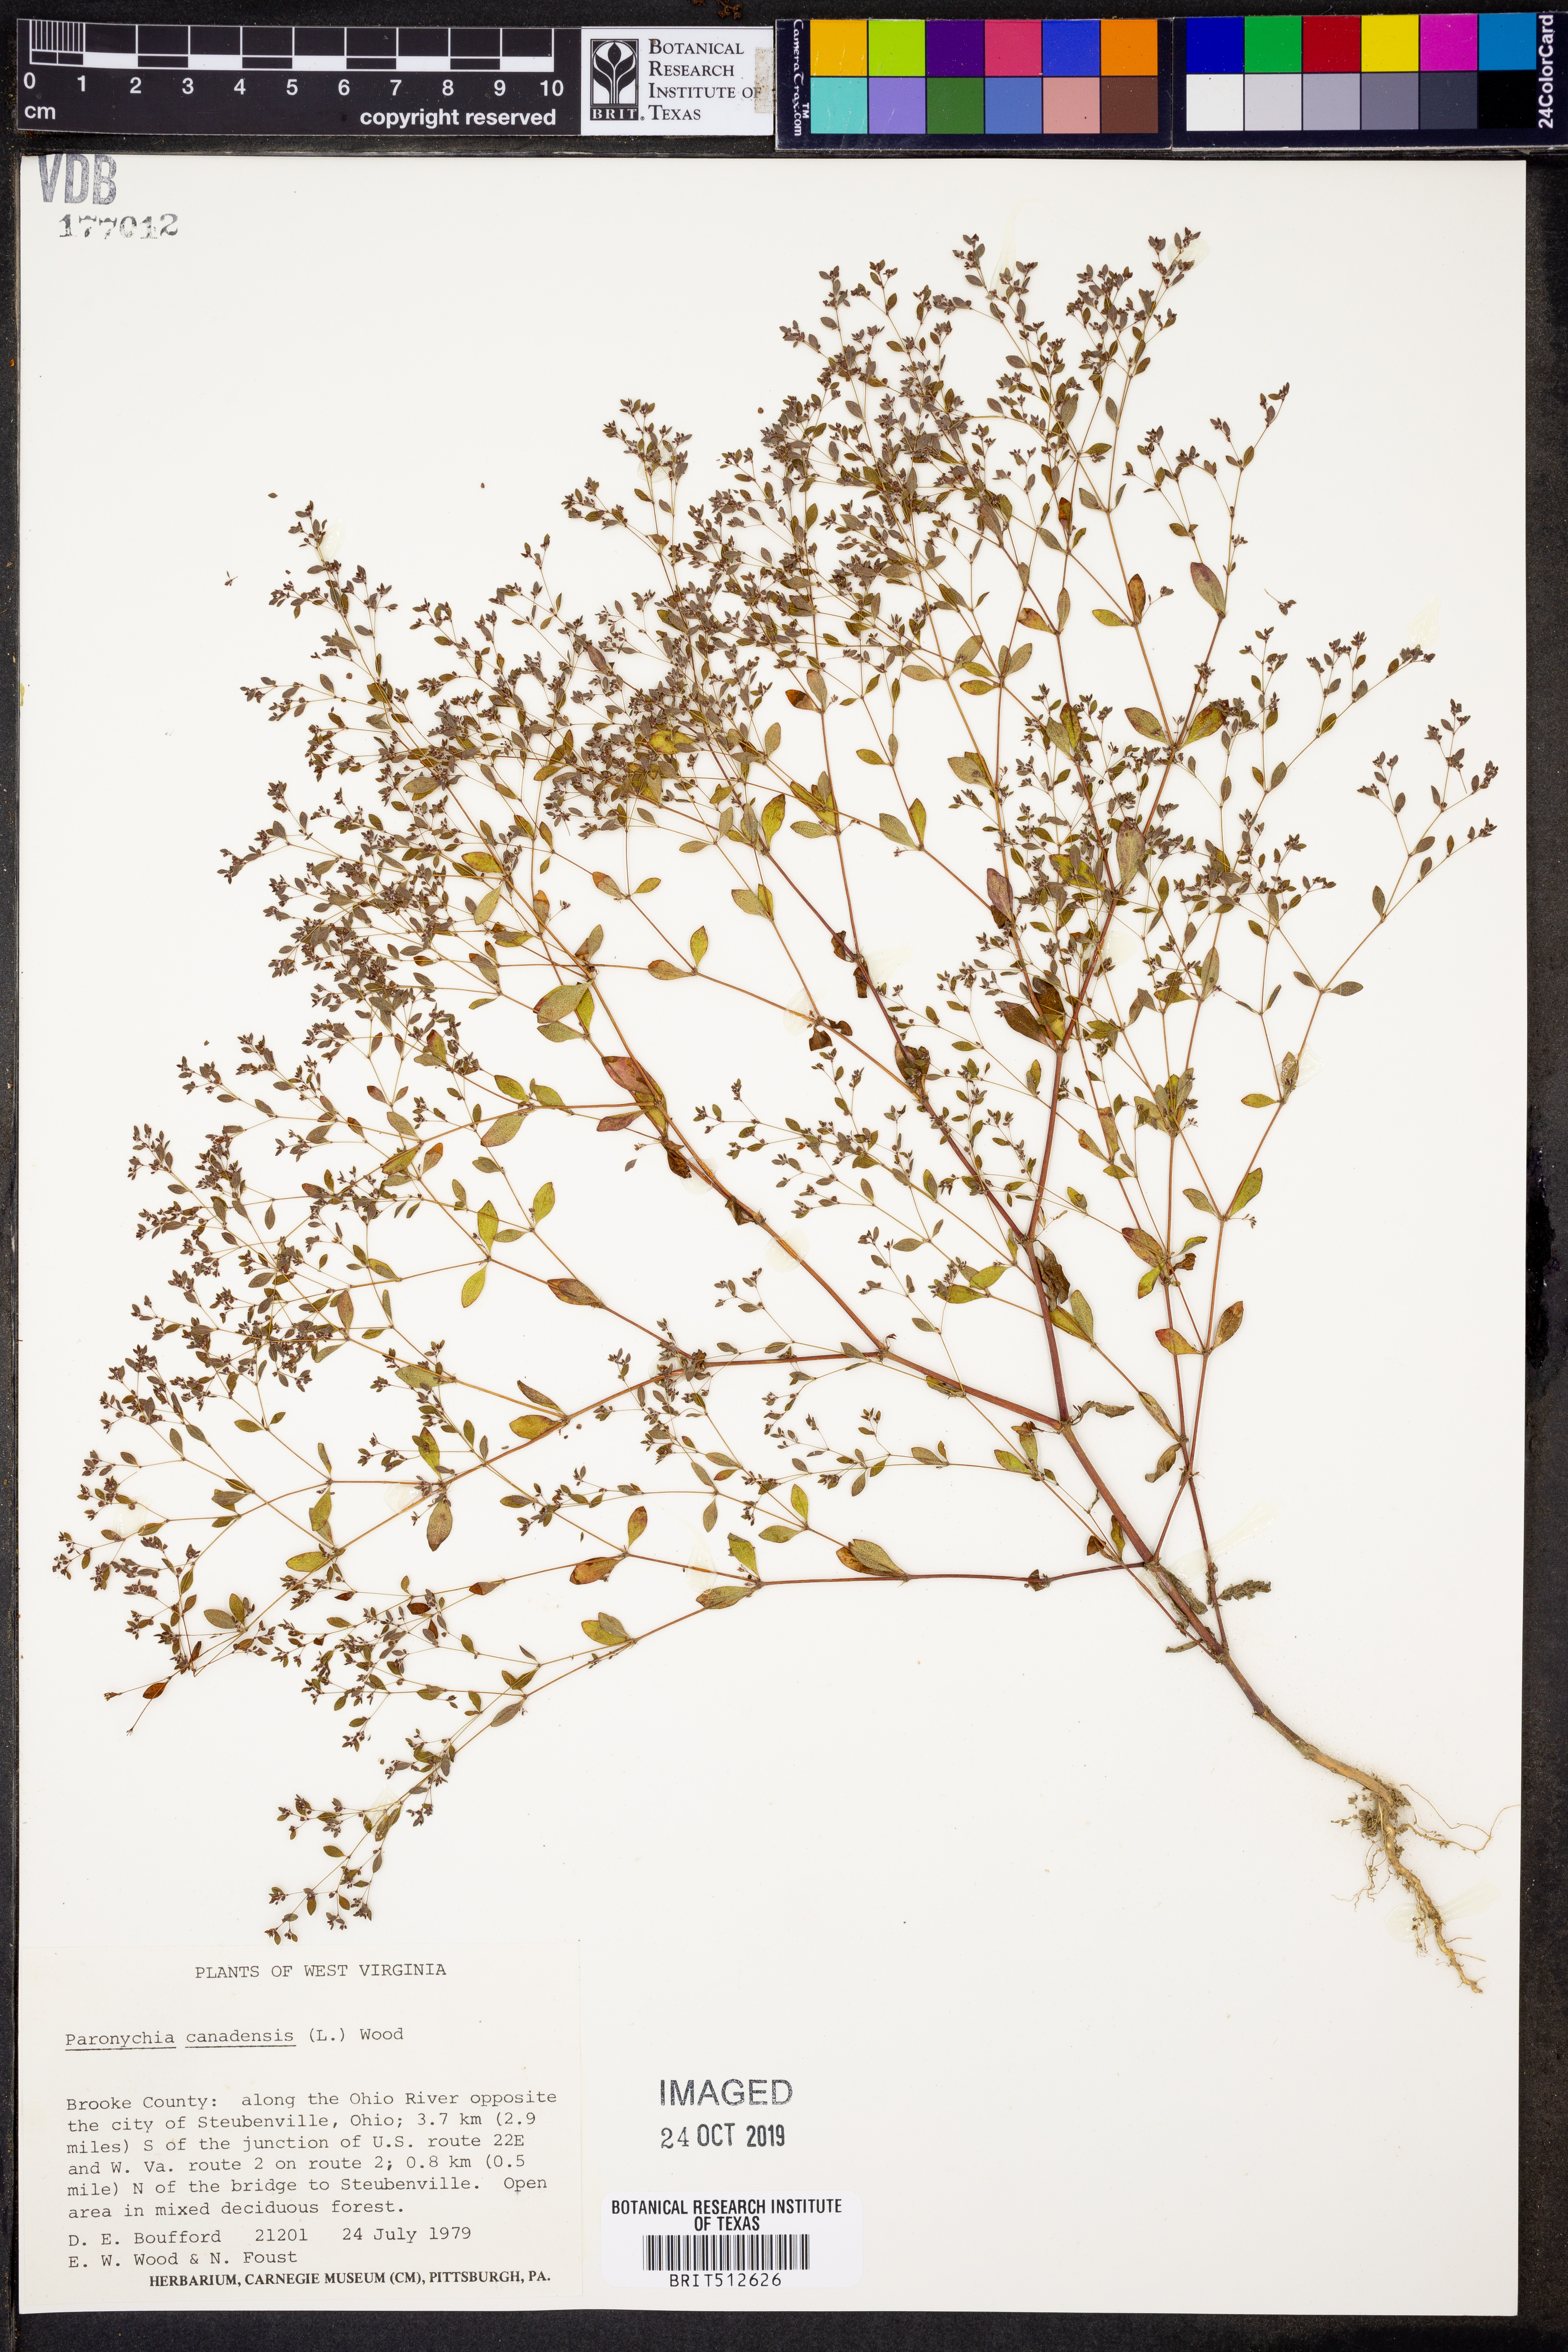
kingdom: Plantae
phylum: Tracheophyta
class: Magnoliopsida
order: Caryophyllales
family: Caryophyllaceae
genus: Paronychia
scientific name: Paronychia canadensis
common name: Canada forked nailwort
